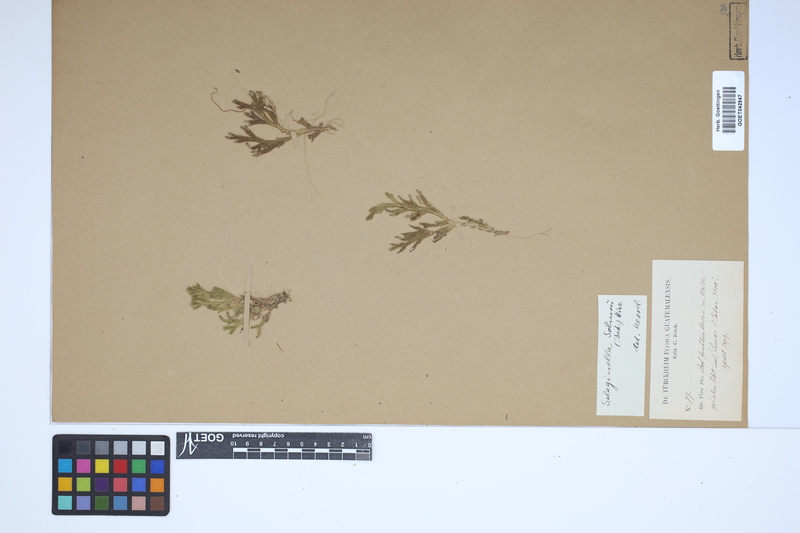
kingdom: Plantae
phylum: Tracheophyta
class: Lycopodiopsida
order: Selaginellales
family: Selaginellaceae
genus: Selaginella
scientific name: Selaginella martensii
